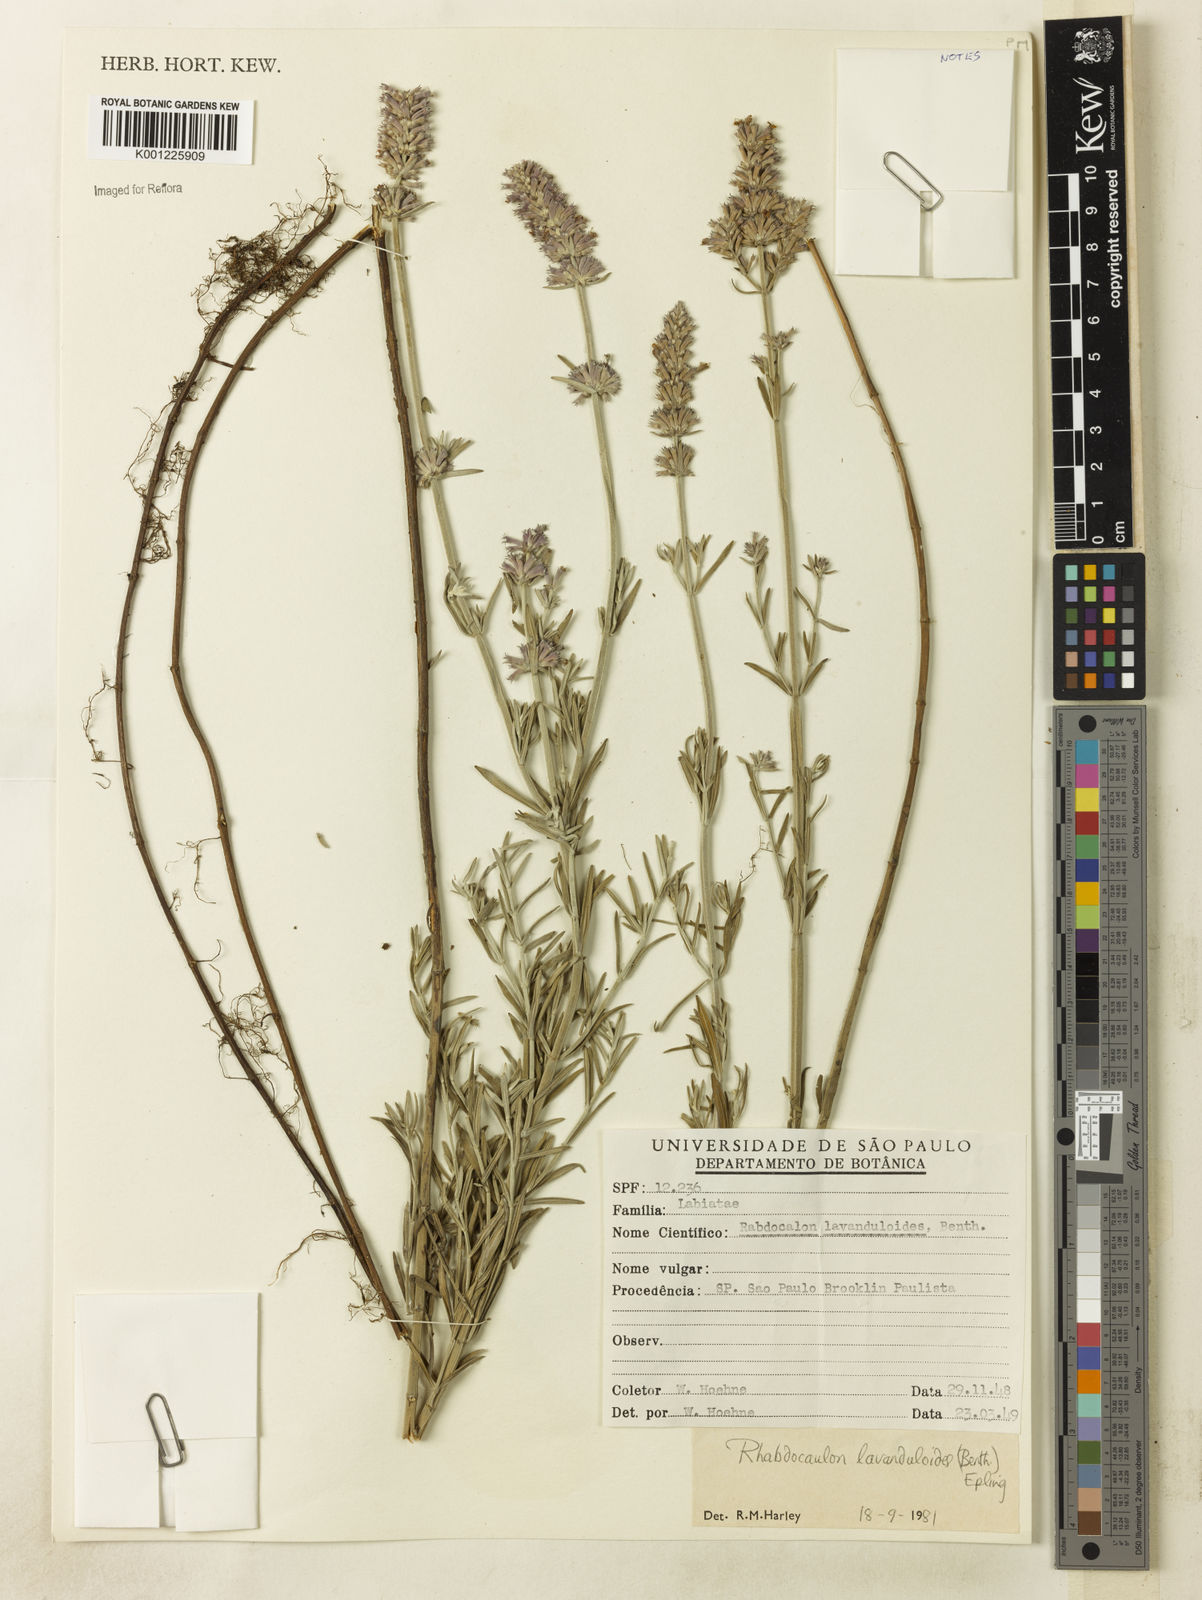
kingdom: Plantae
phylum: Tracheophyta
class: Magnoliopsida
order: Lamiales
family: Lamiaceae
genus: Rhabdocaulon
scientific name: Rhabdocaulon lavanduloides
